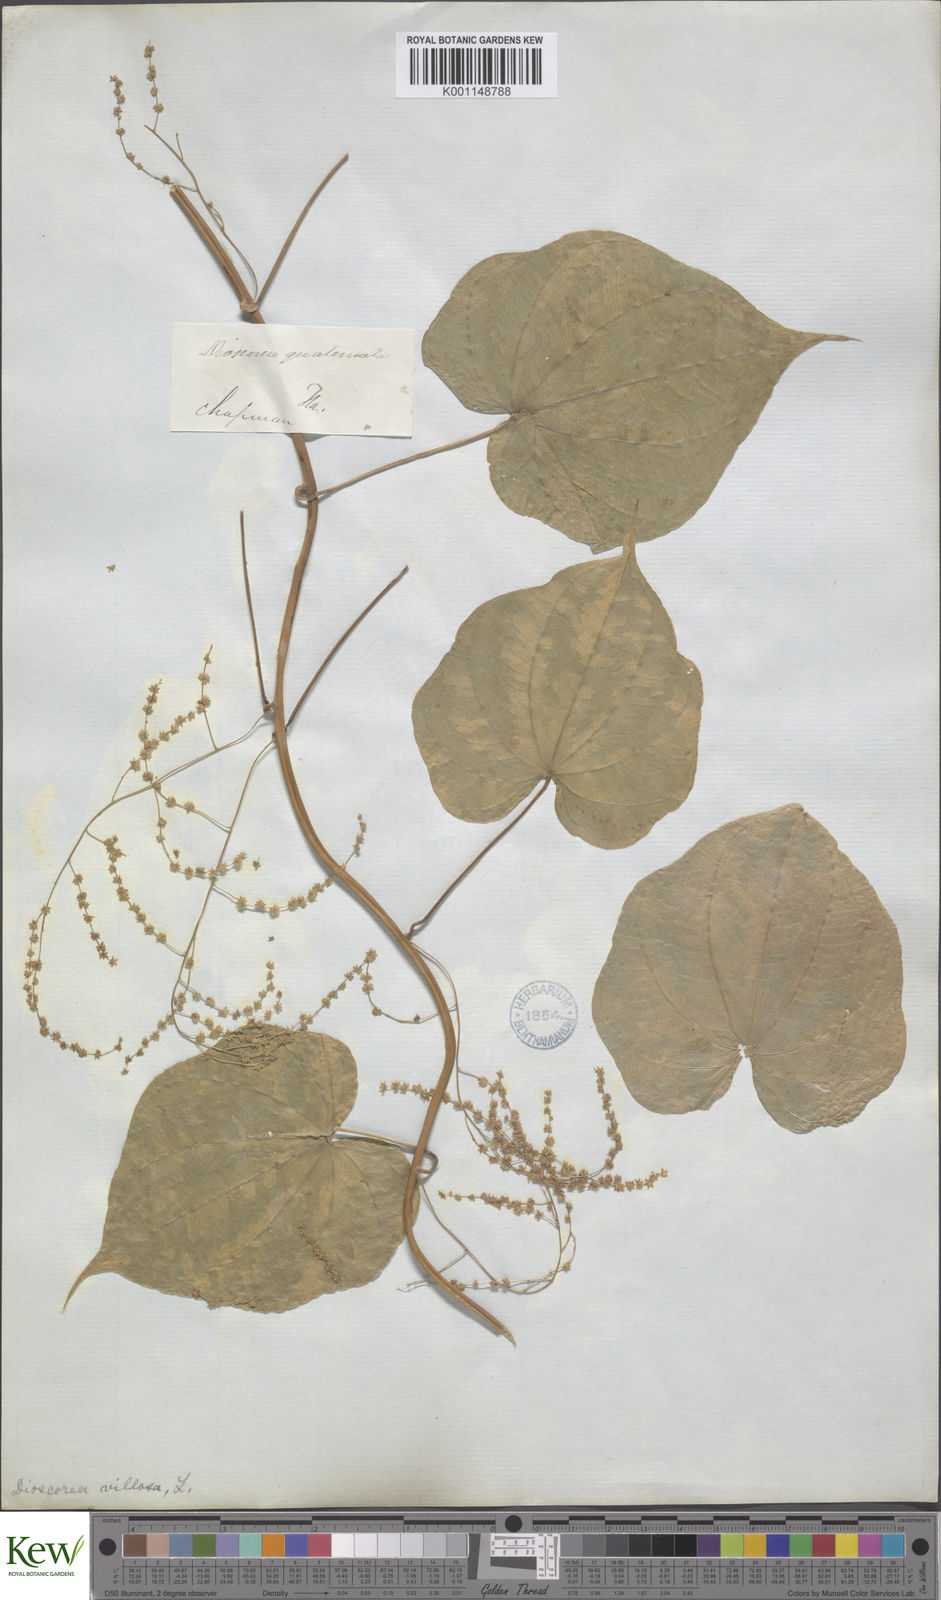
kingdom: Plantae
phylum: Tracheophyta
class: Liliopsida
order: Dioscoreales
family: Dioscoreaceae
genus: Dioscorea
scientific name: Dioscorea villosa
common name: Wild yam
